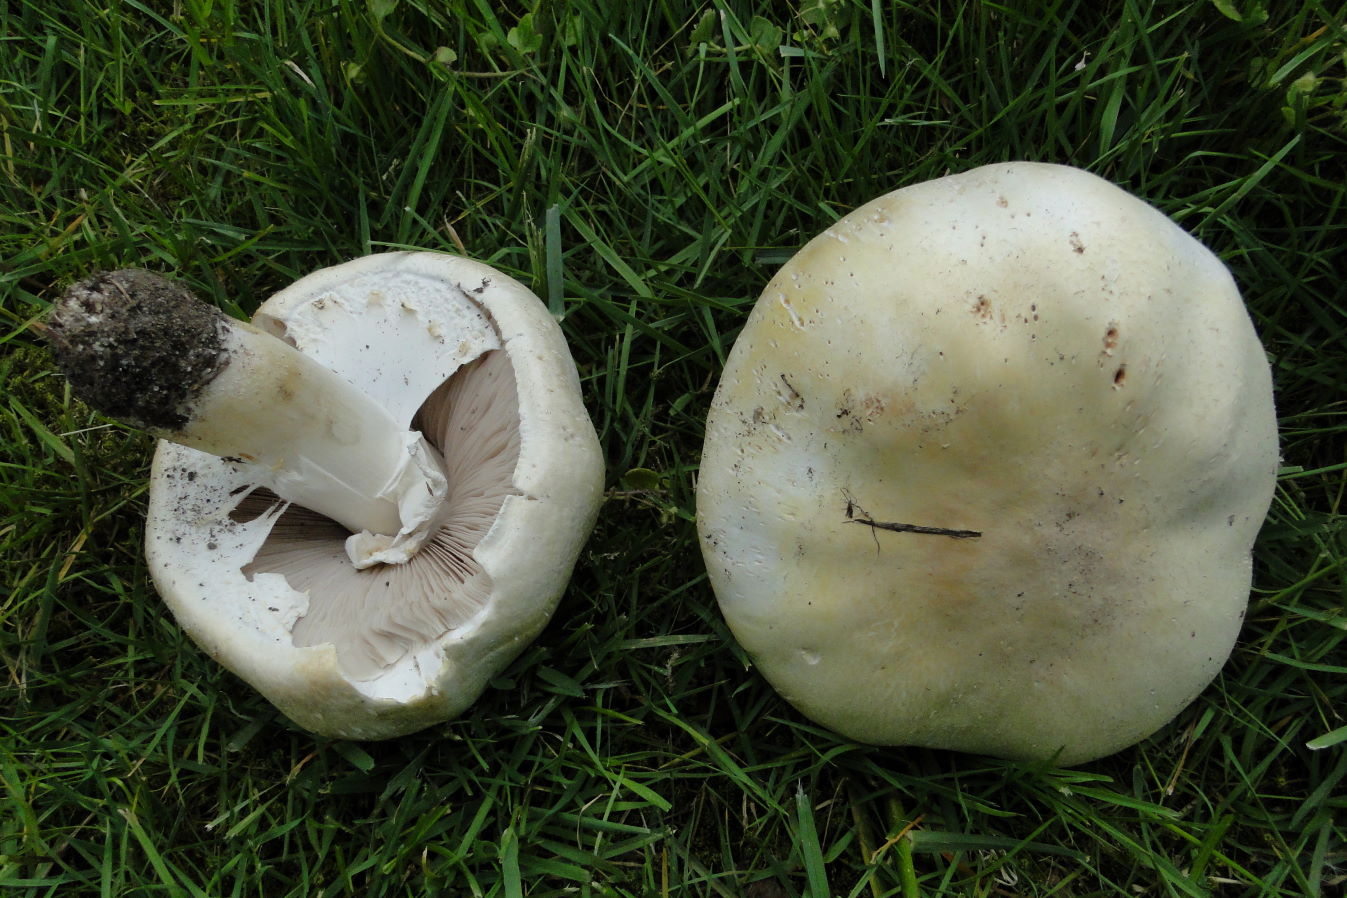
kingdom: Fungi
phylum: Basidiomycota
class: Agaricomycetes
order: Agaricales
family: Agaricaceae
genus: Agaricus
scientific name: Agaricus arvensis
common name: ager-champignon
